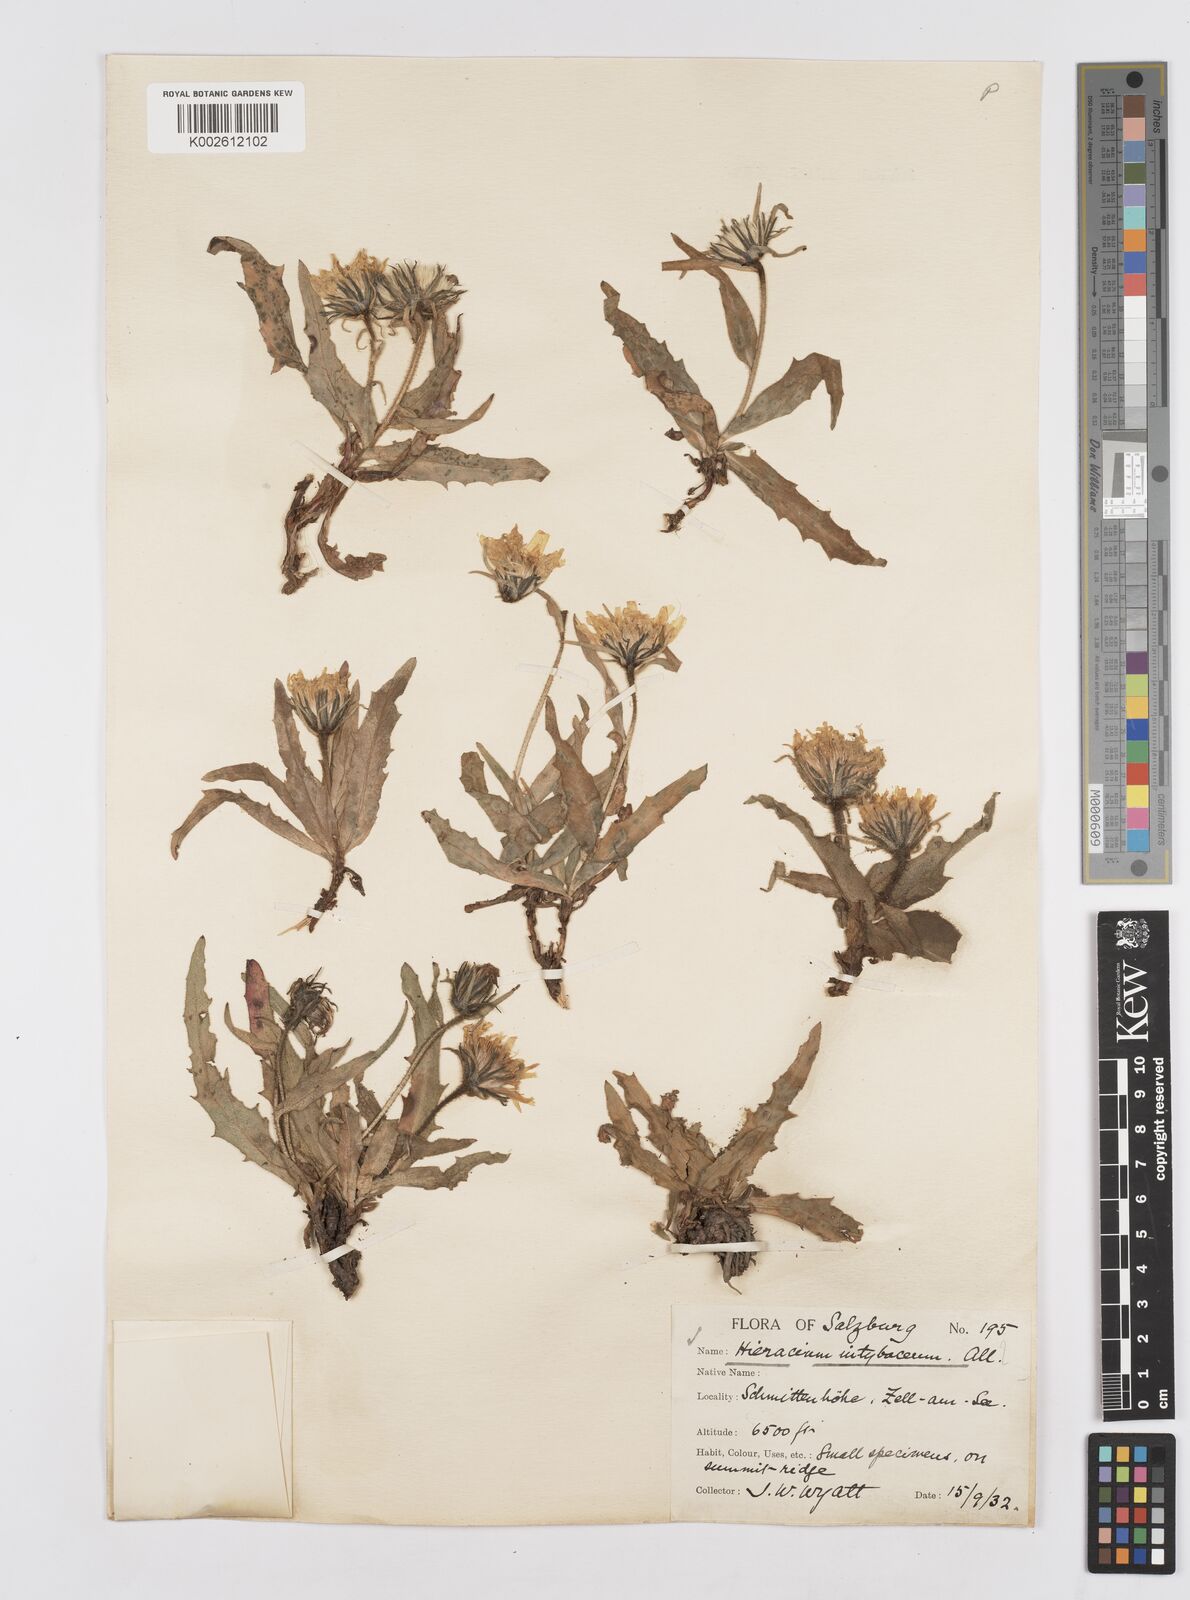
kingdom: Plantae
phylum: Tracheophyta
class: Magnoliopsida
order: Asterales
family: Asteraceae
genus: Hieracium
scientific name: Hieracium
